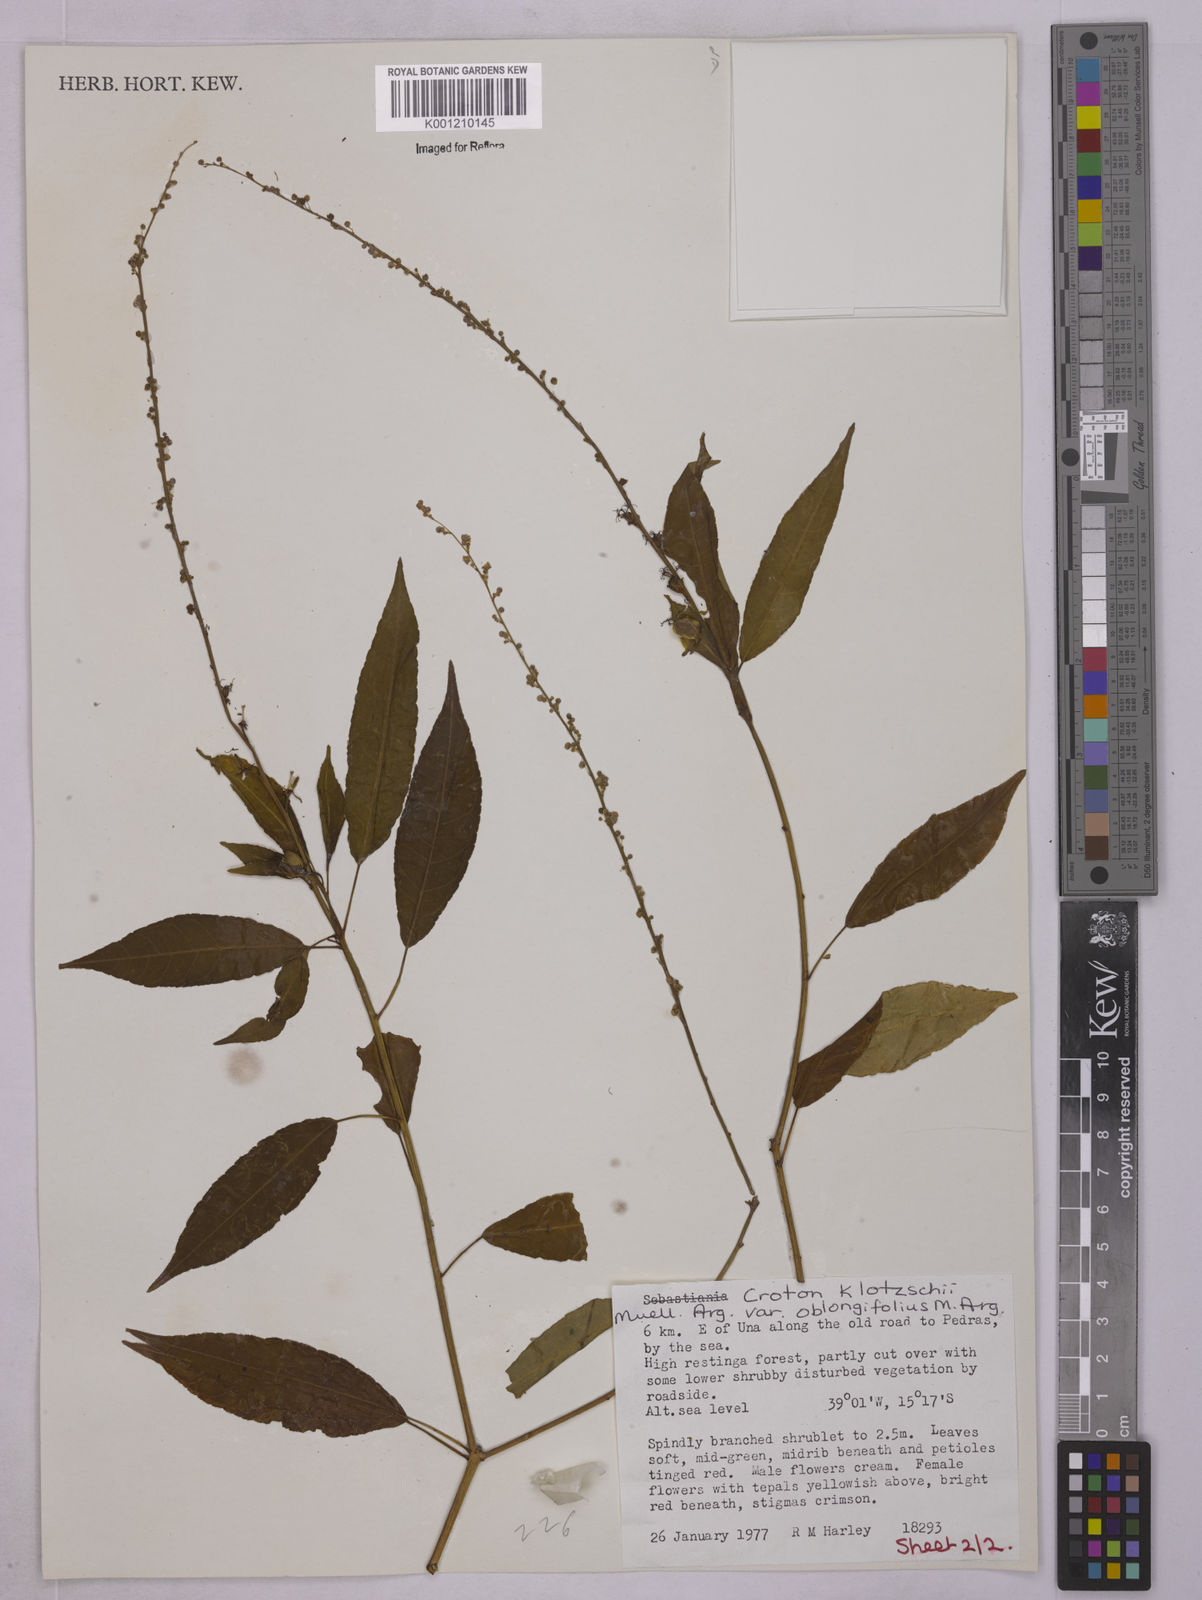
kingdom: Plantae
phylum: Tracheophyta
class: Magnoliopsida
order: Malpighiales
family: Euphorbiaceae
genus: Astraea
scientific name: Astraea macroura
